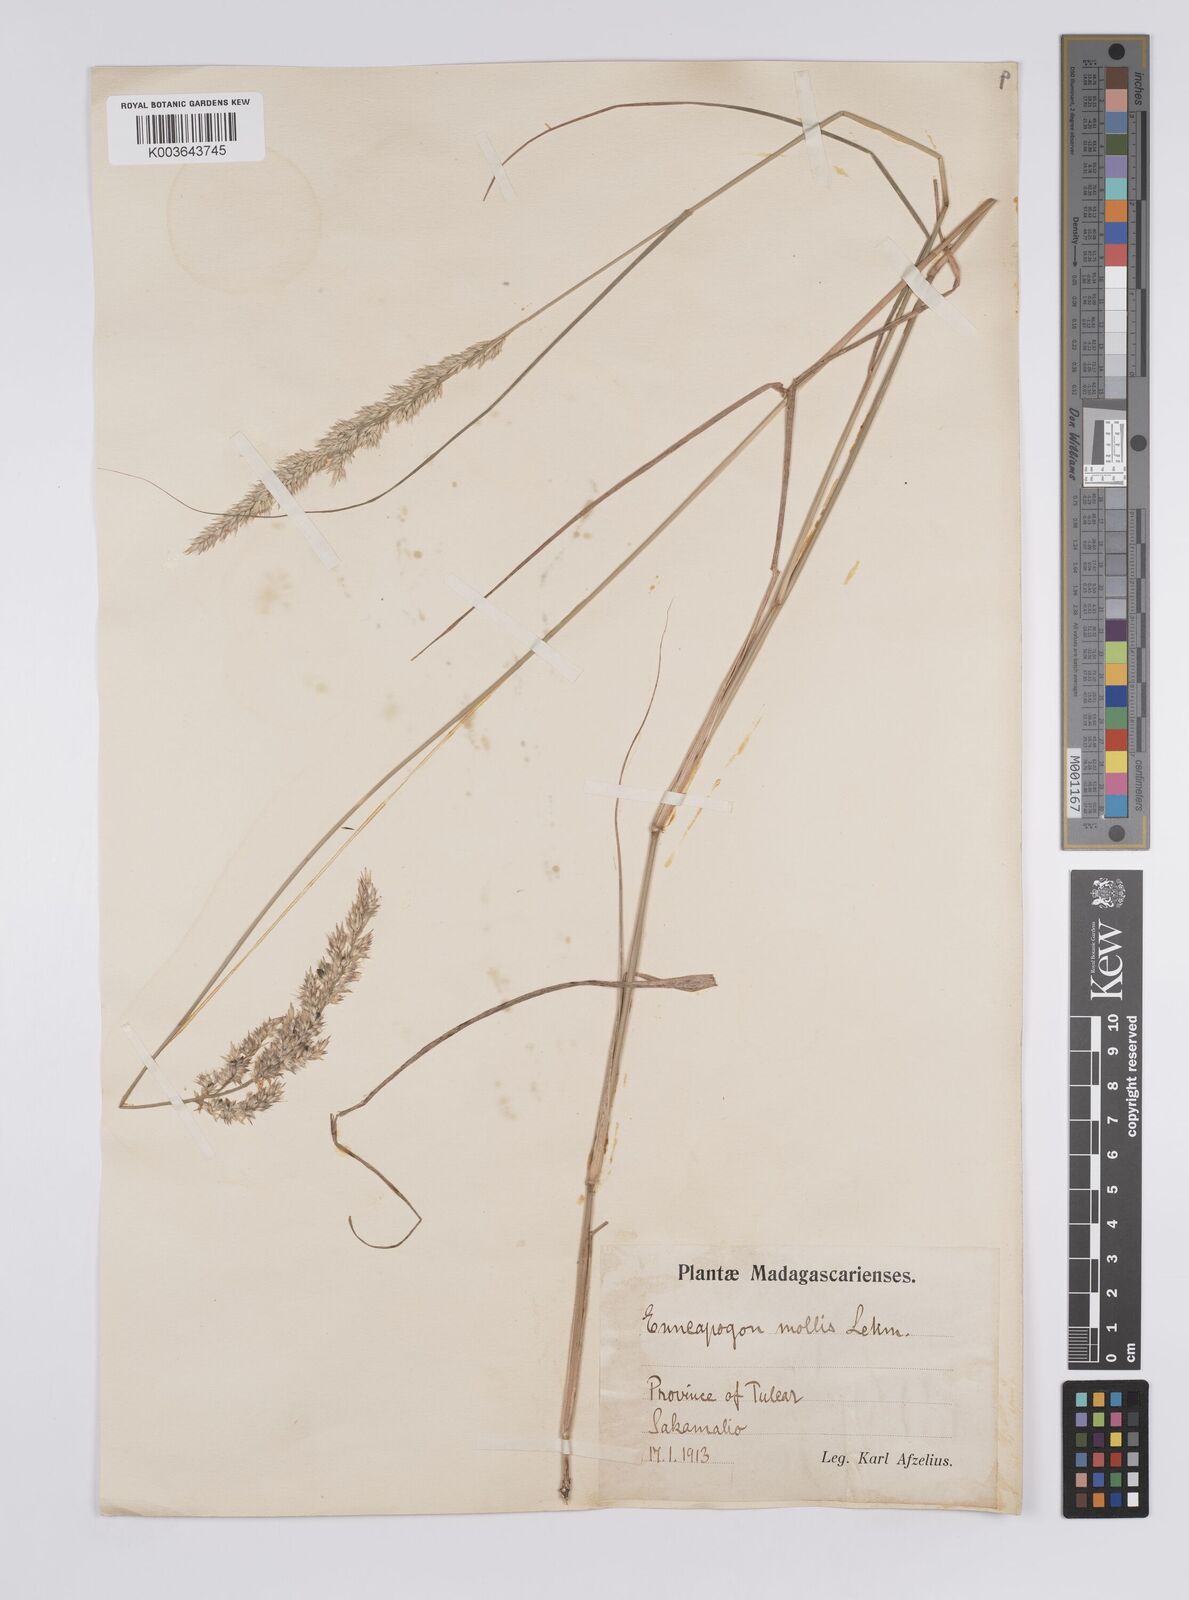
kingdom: Plantae
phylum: Tracheophyta
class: Liliopsida
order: Poales
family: Poaceae
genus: Enneapogon
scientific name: Enneapogon cenchroides
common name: Soft feather pappusgrass
